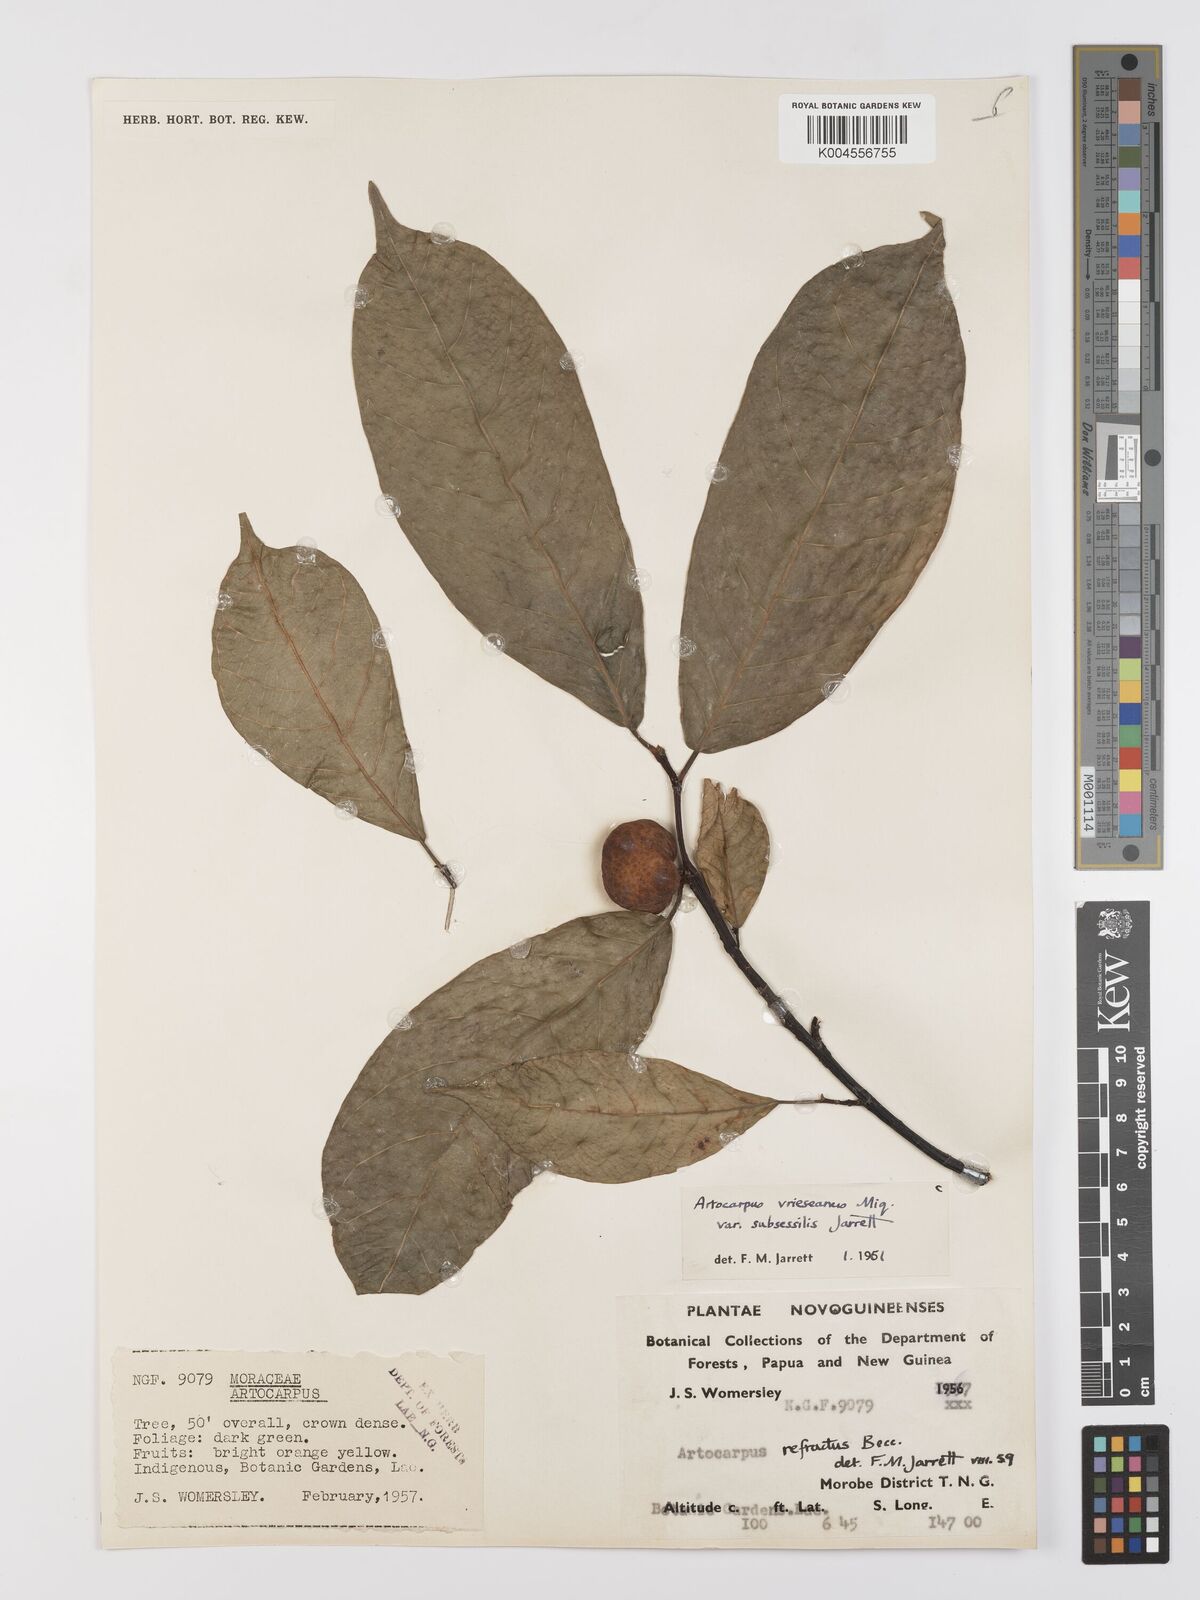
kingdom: Plantae
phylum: Tracheophyta
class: Magnoliopsida
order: Rosales
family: Moraceae
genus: Artocarpus
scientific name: Artocarpus vrieseanus
